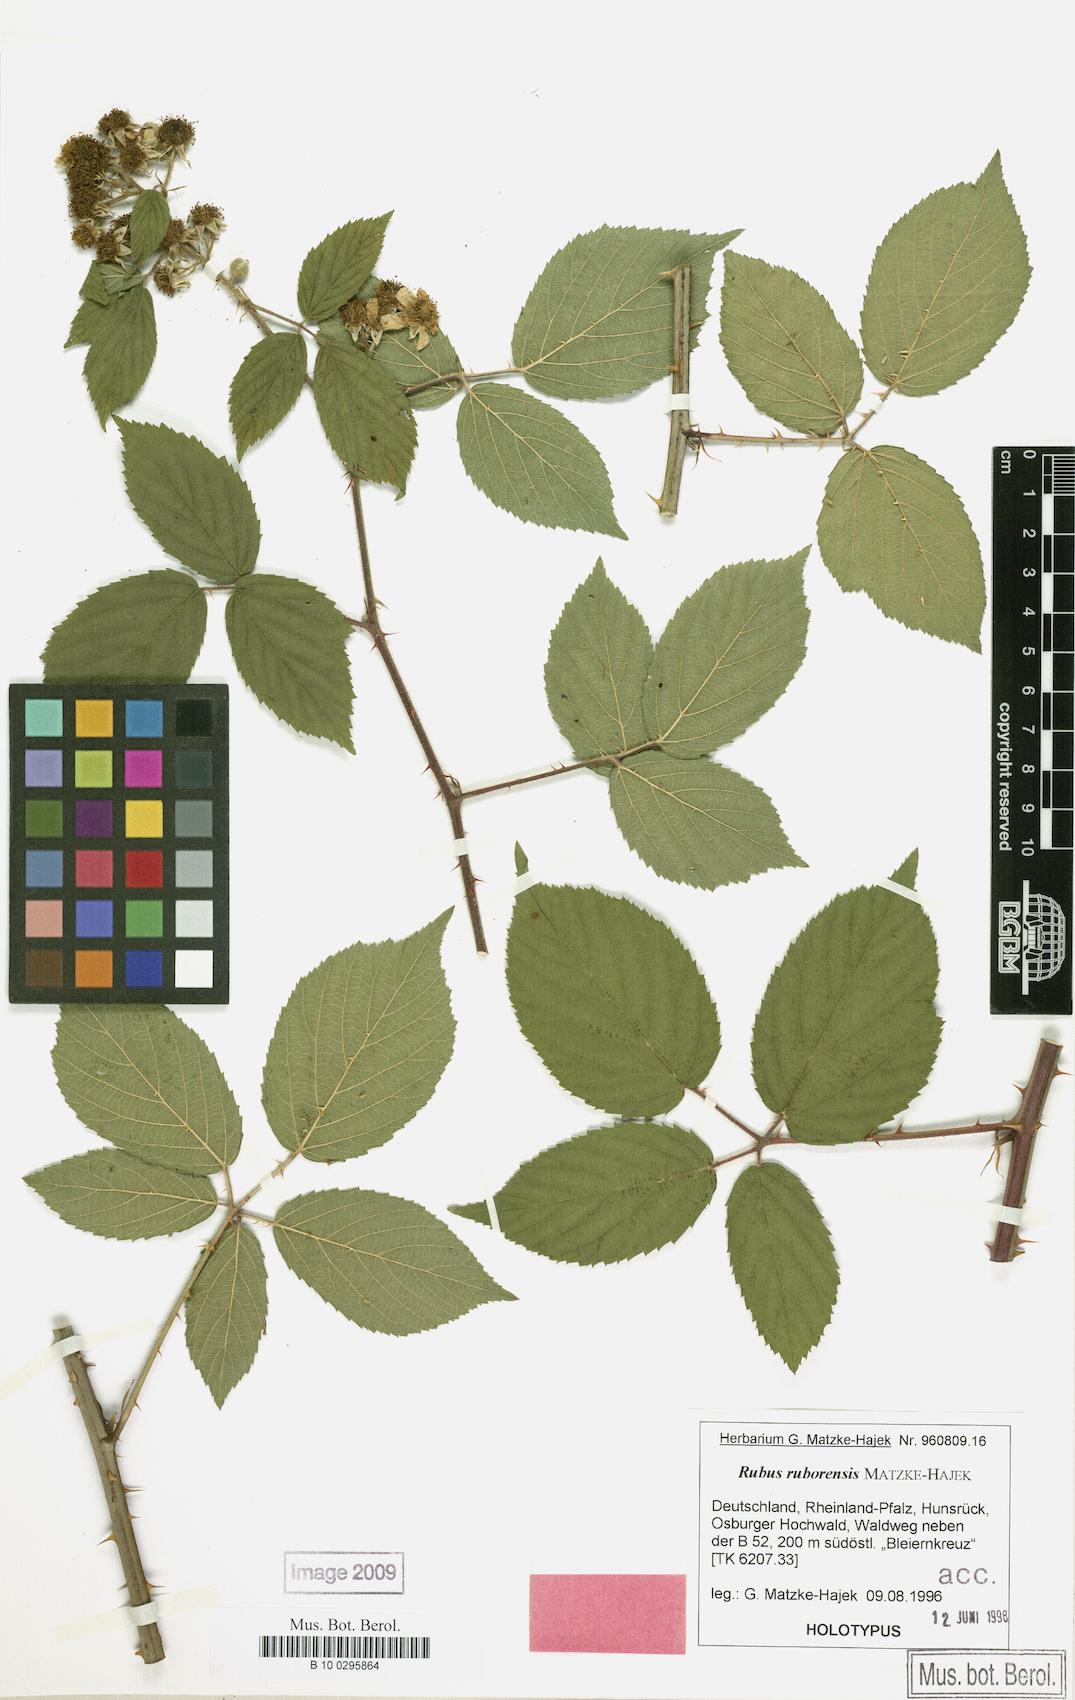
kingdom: Plantae
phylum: Tracheophyta
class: Magnoliopsida
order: Rosales
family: Rosaceae
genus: Rubus
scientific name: Rubus ruborensis
